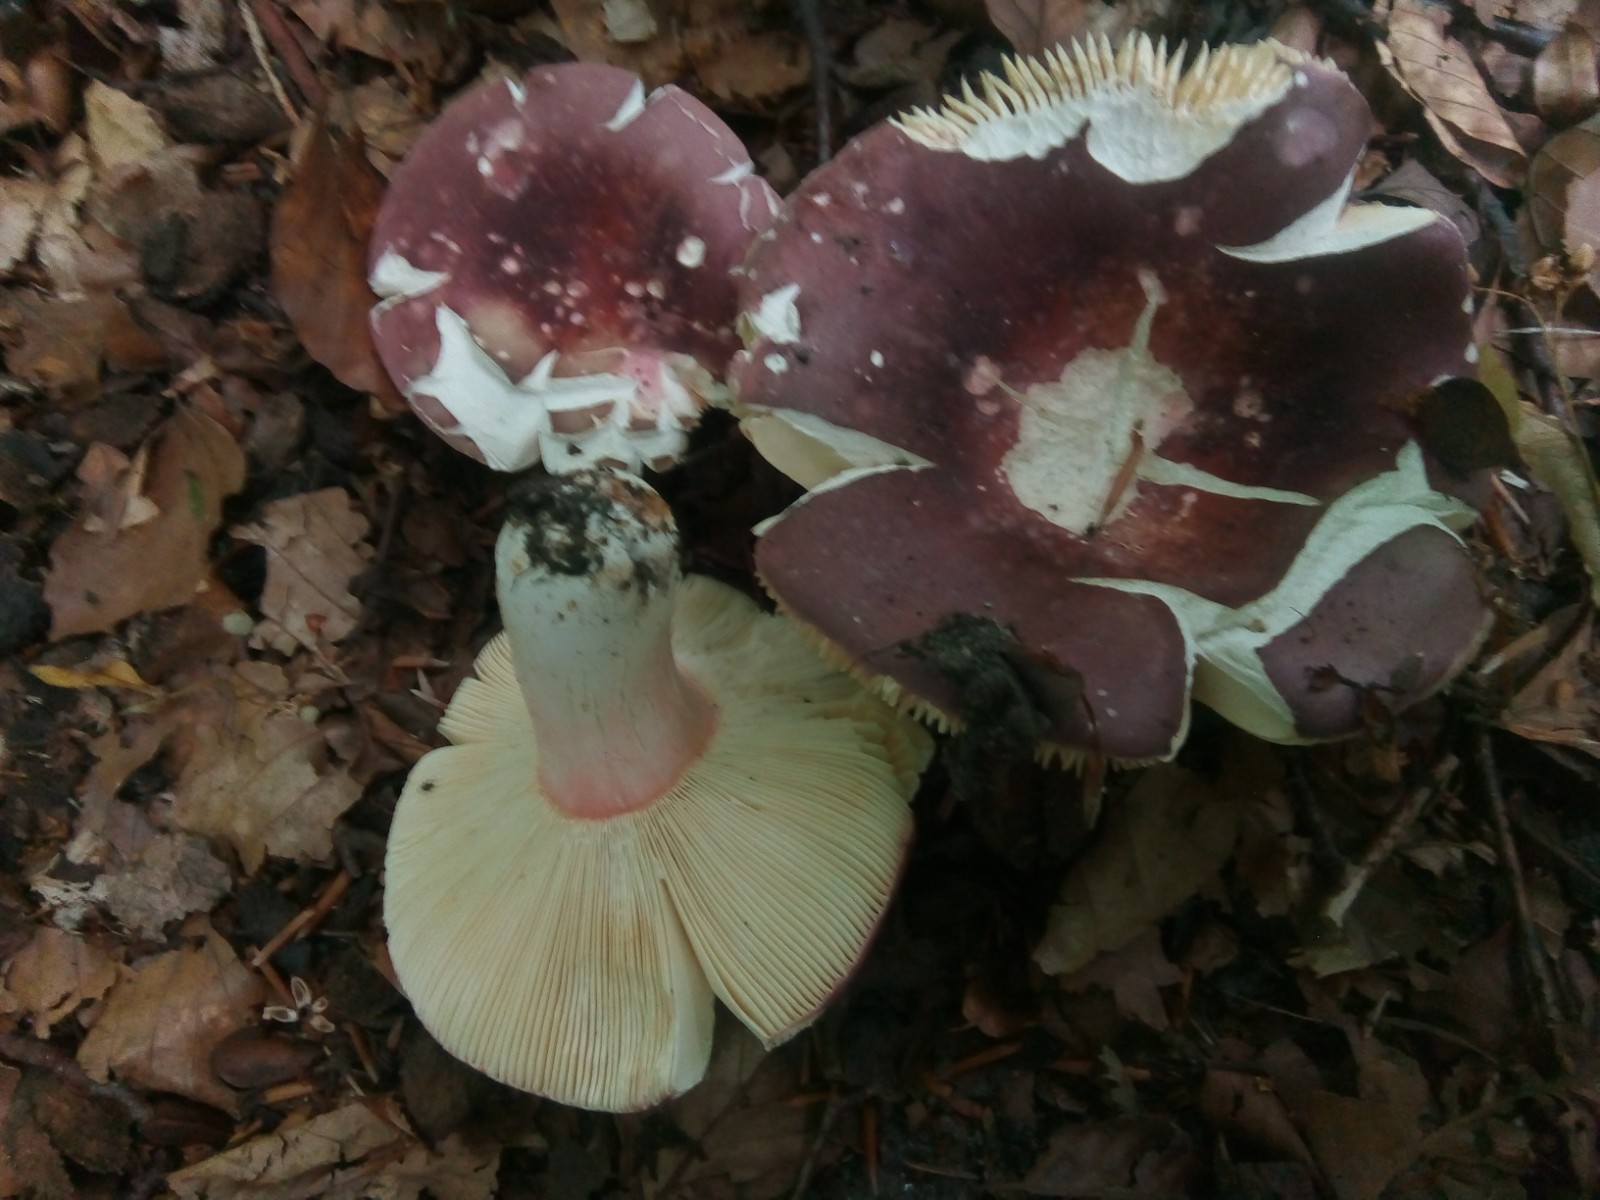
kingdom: Fungi
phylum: Basidiomycota
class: Agaricomycetes
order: Russulales
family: Russulaceae
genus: Russula
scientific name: Russula olivacea
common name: stor skørhat
